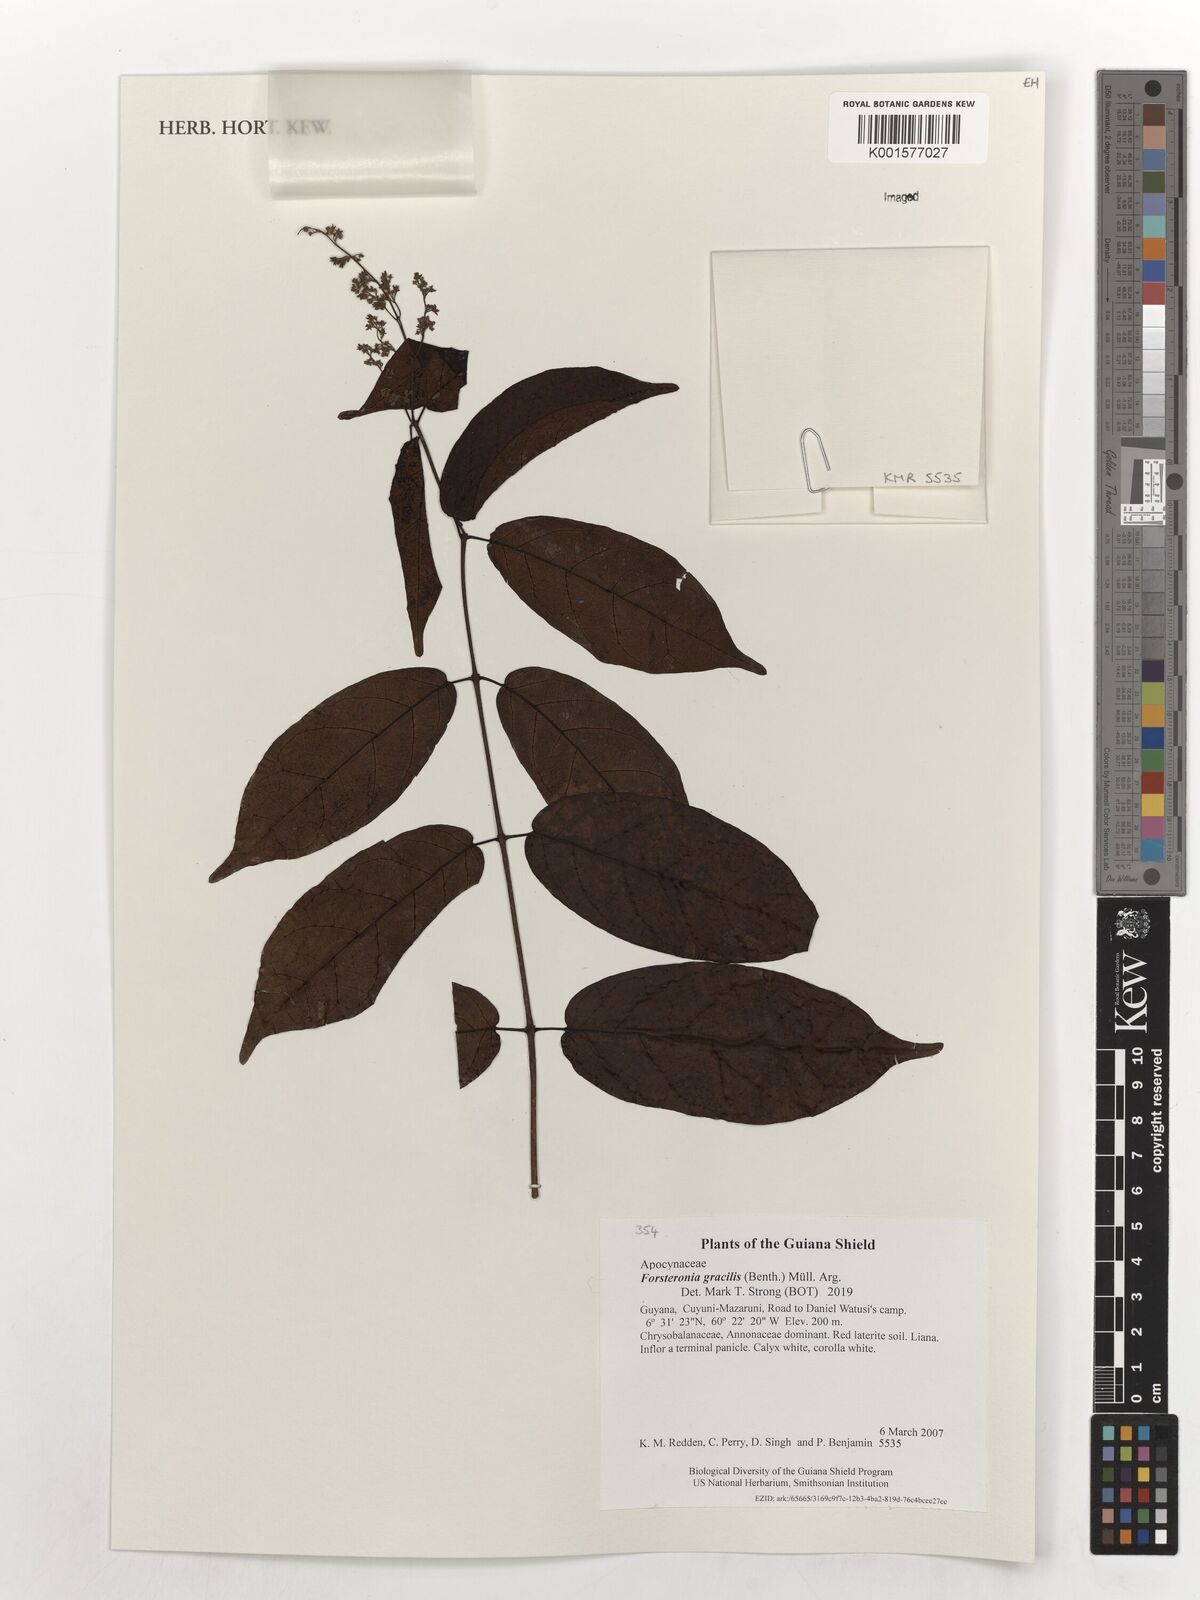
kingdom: Plantae
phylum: Tracheophyta
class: Magnoliopsida
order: Gentianales
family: Apocynaceae
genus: Forsteronia
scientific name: Forsteronia gracilis
